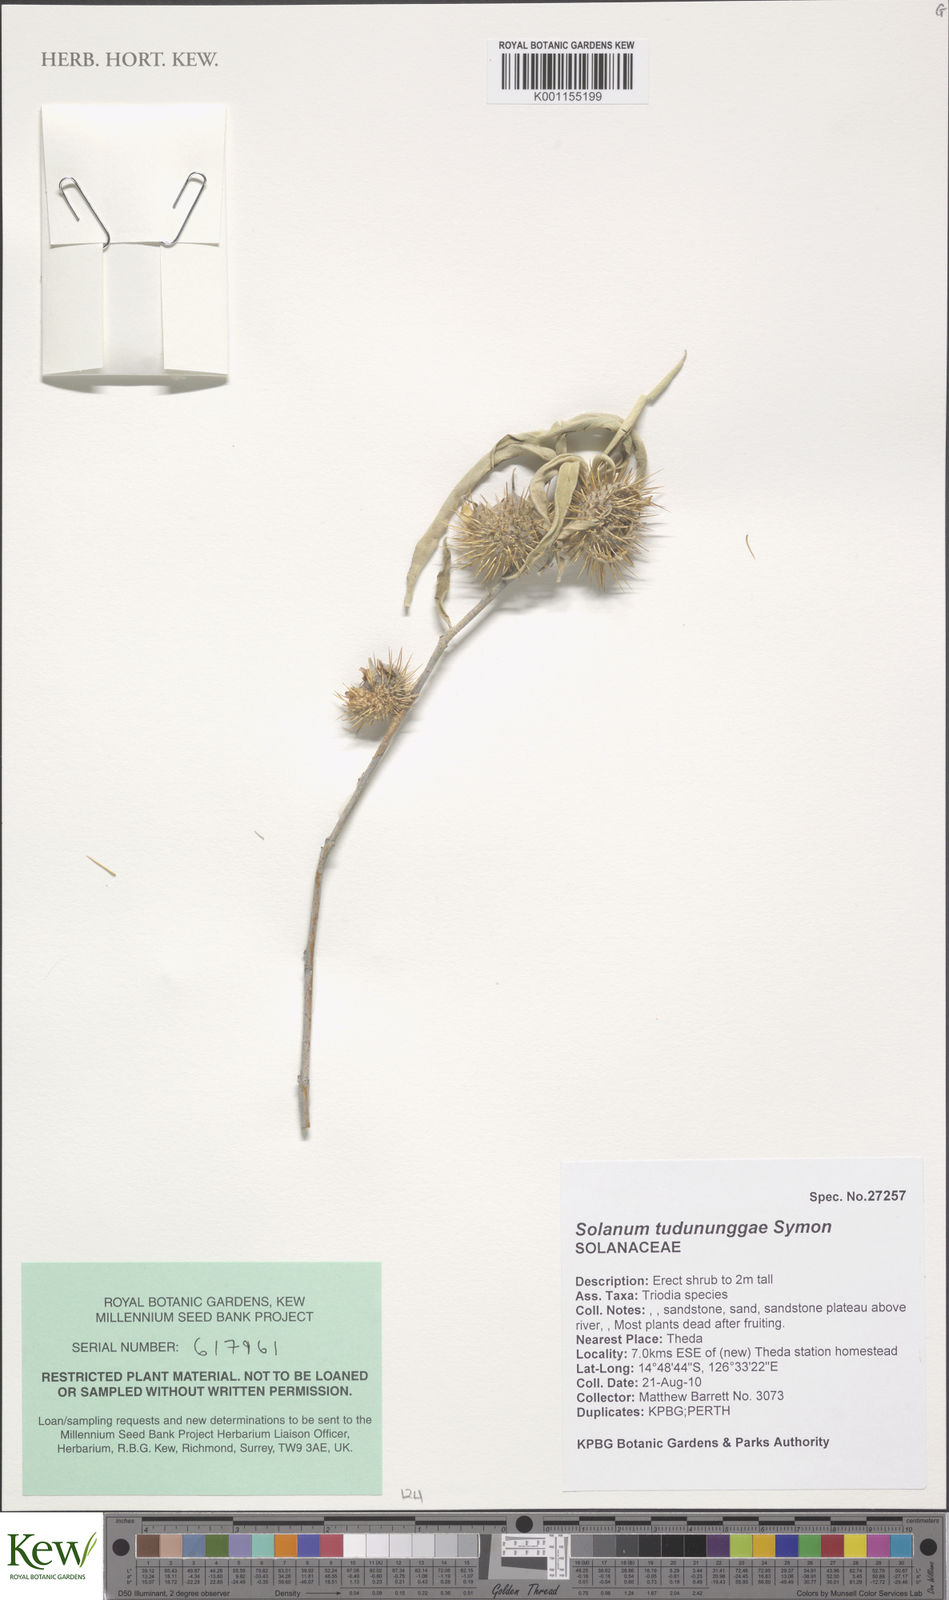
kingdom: Plantae
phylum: Tracheophyta
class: Magnoliopsida
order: Solanales
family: Solanaceae
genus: Solanum
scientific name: Solanum tudununggae
